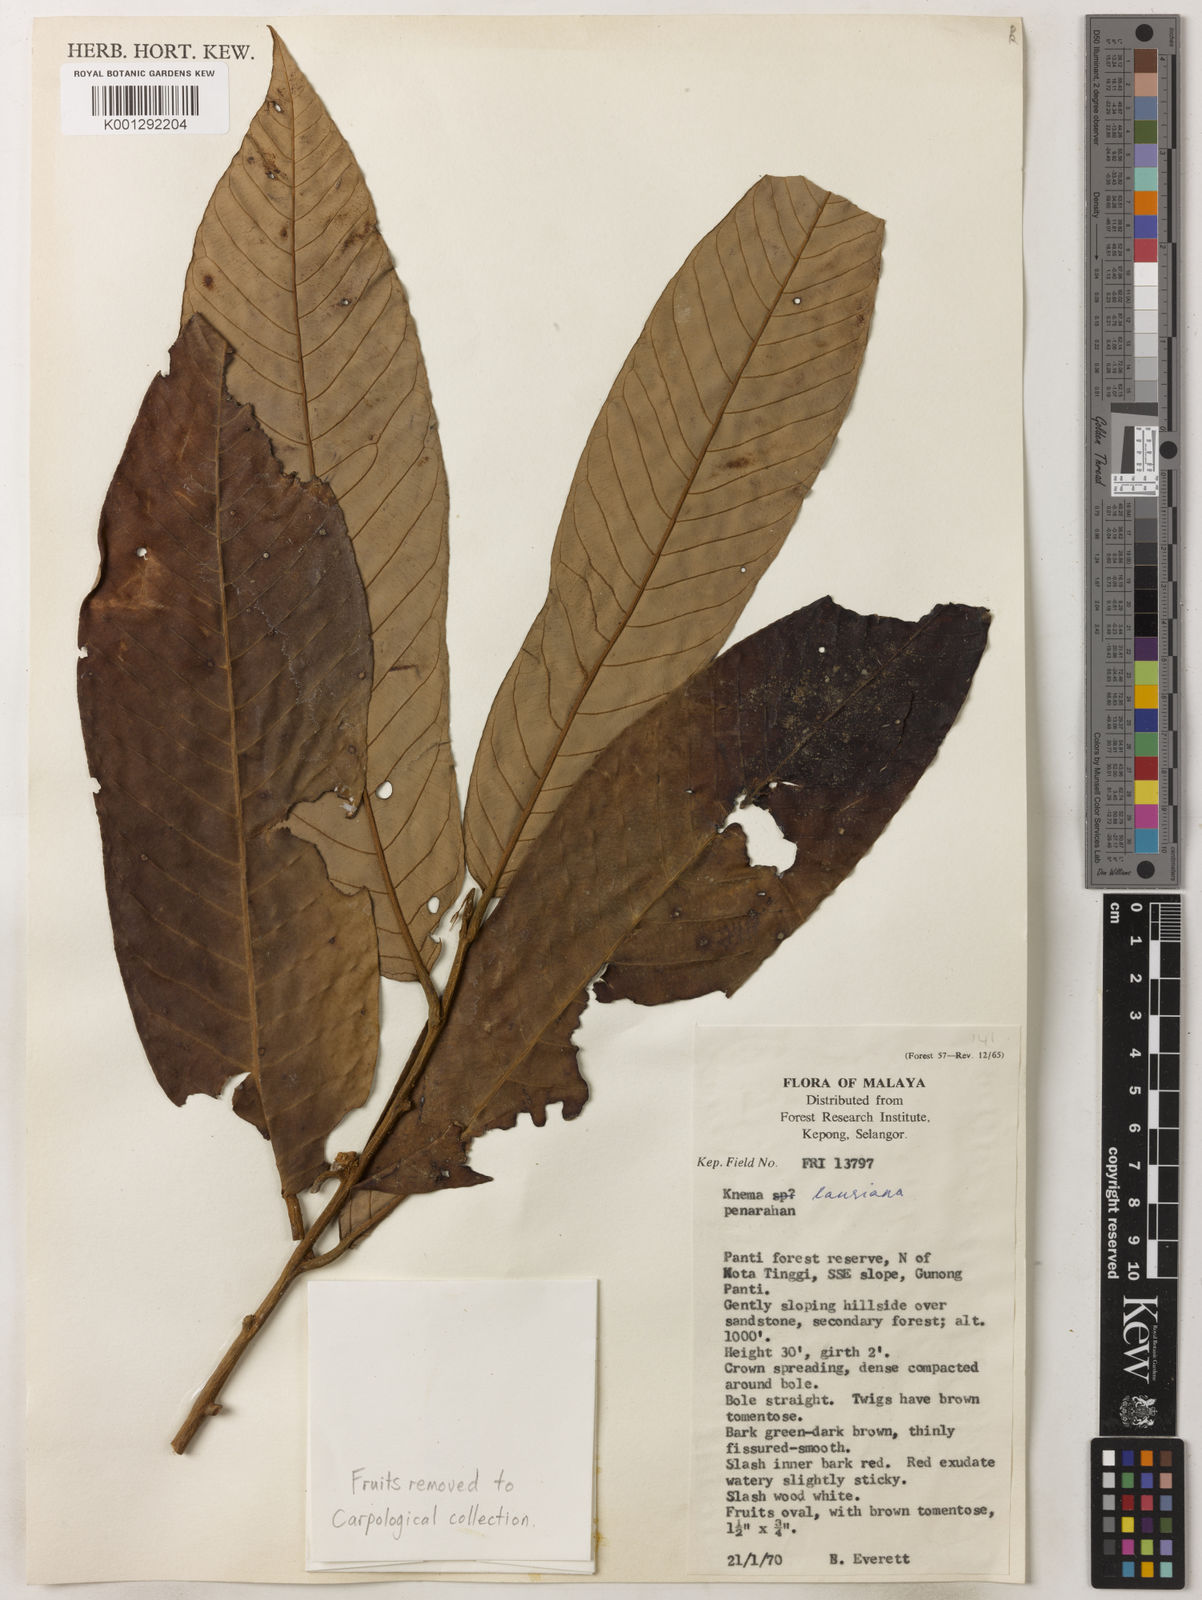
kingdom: Plantae
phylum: Tracheophyta
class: Magnoliopsida
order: Magnoliales
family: Myristicaceae
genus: Knema
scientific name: Knema laurina
